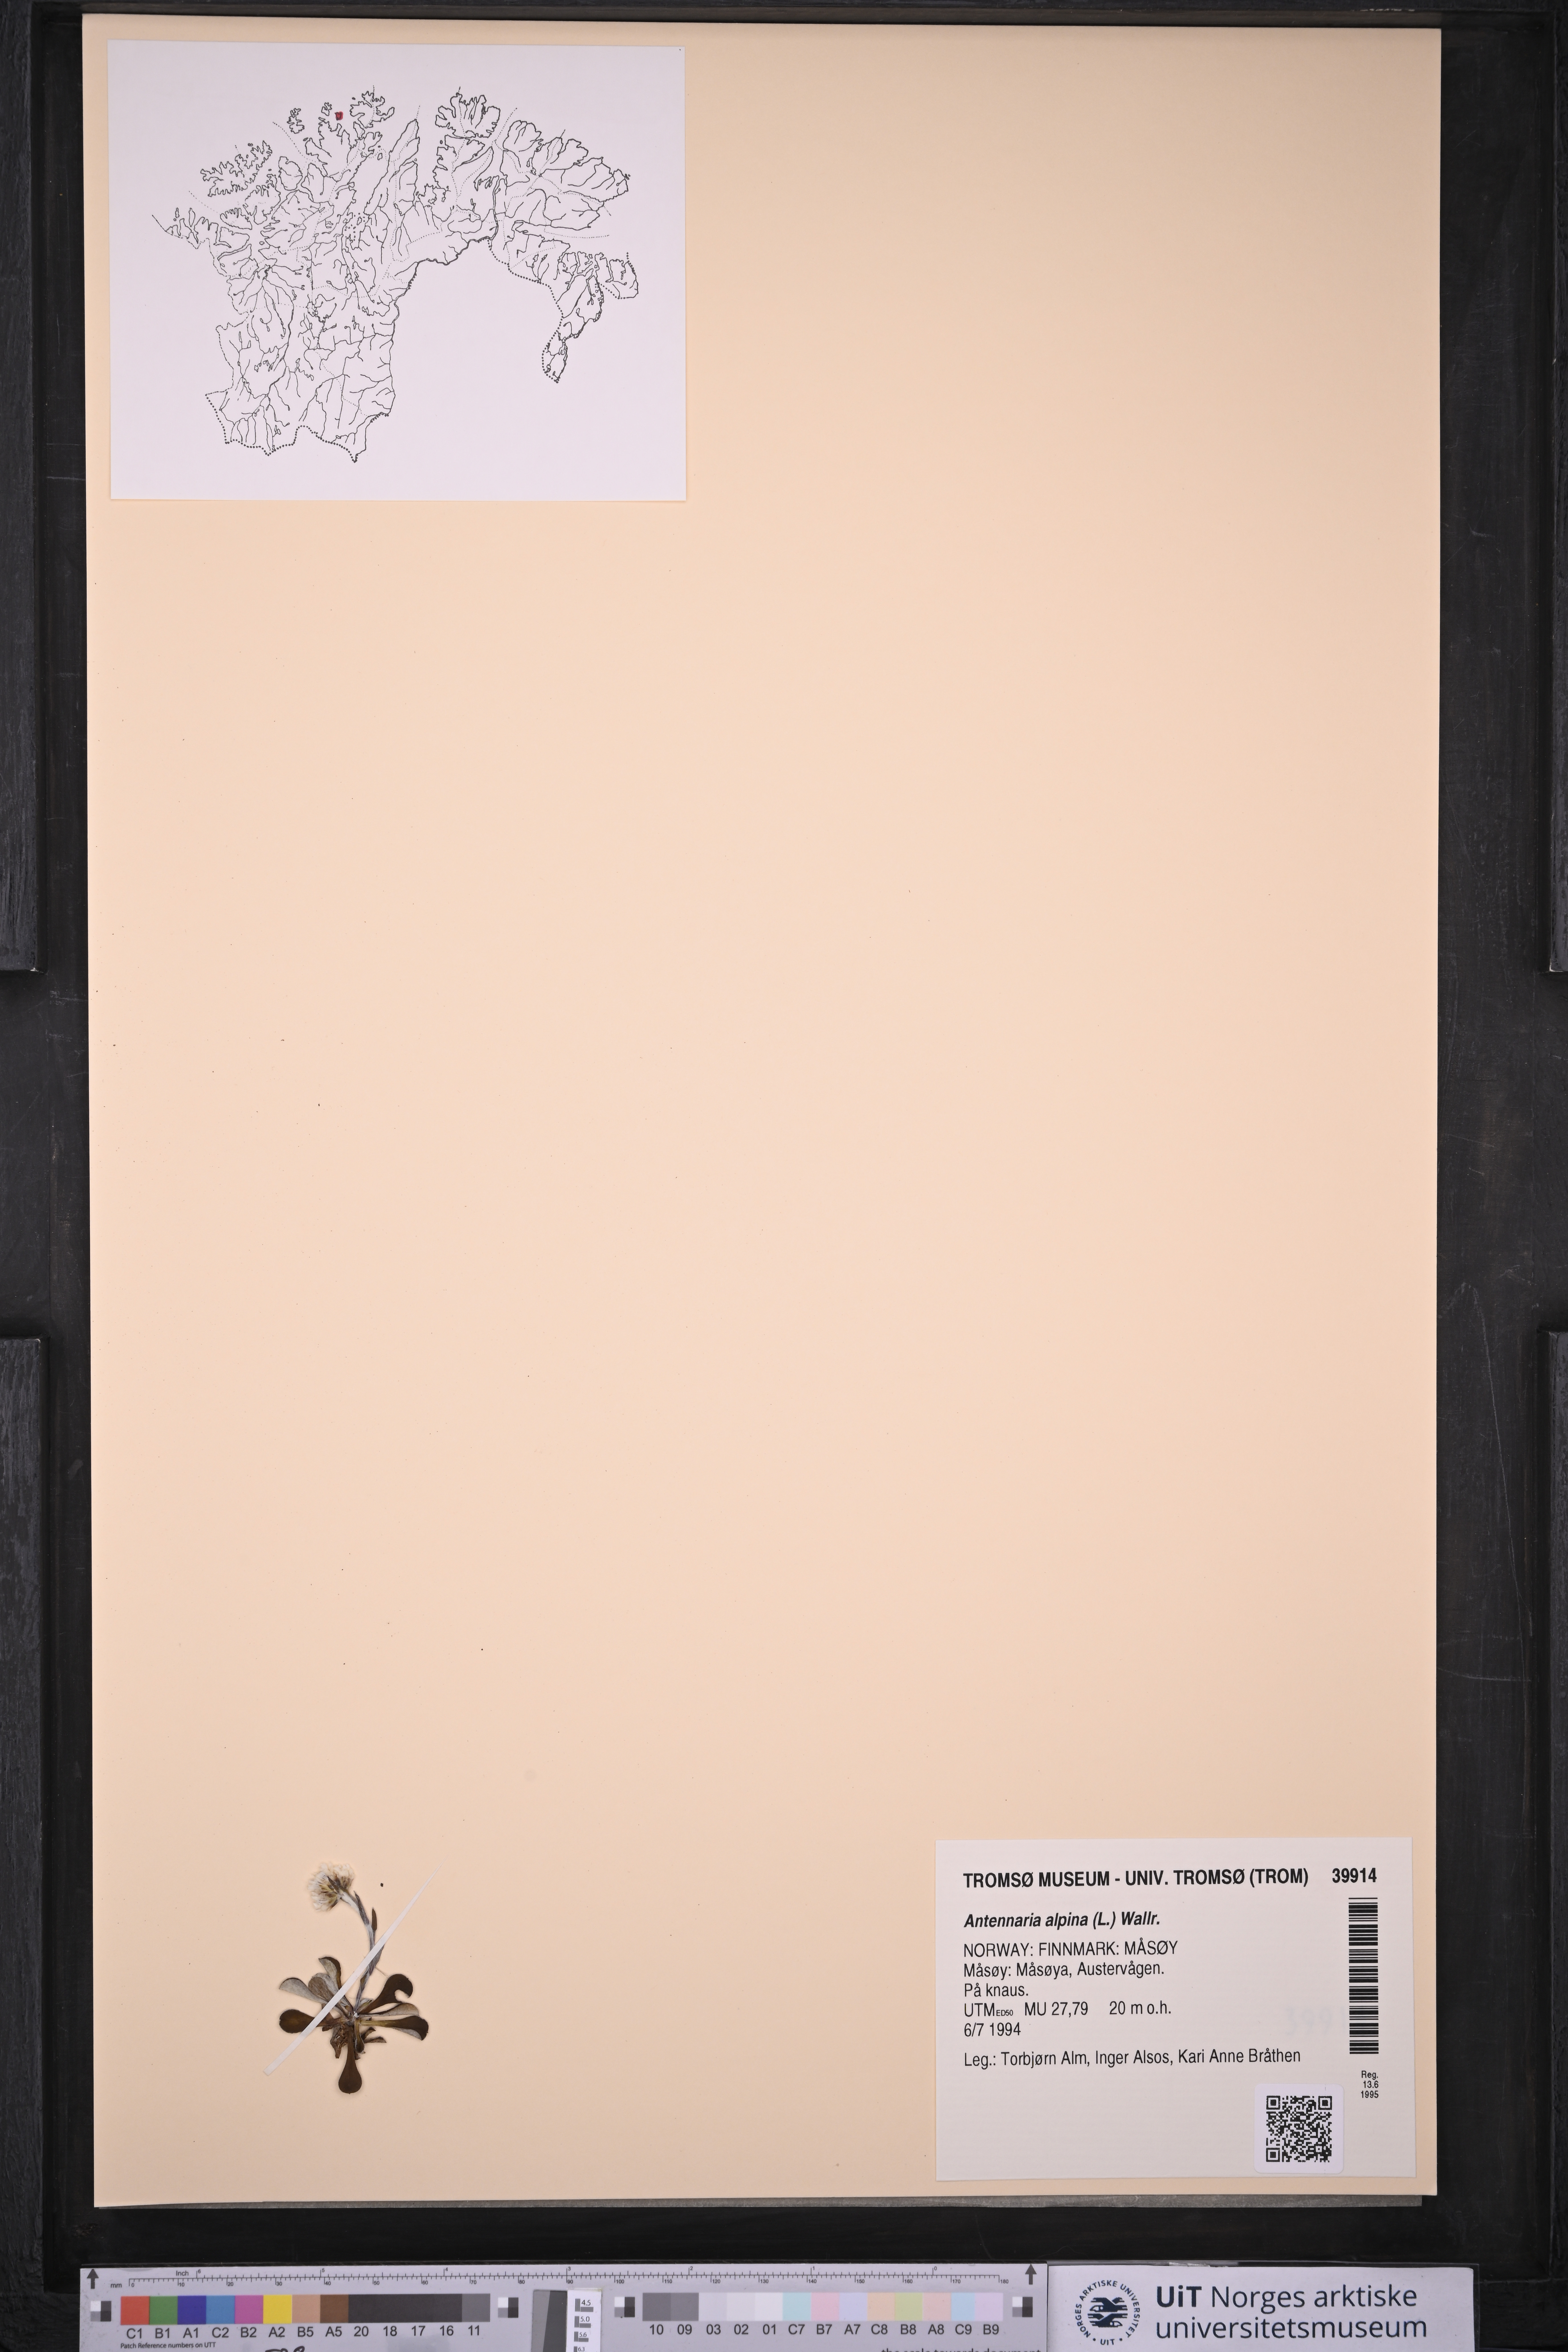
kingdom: Plantae
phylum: Tracheophyta
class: Magnoliopsida
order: Asterales
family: Asteraceae
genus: Antennaria
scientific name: Antennaria alpina
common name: Alpine pussytoes
